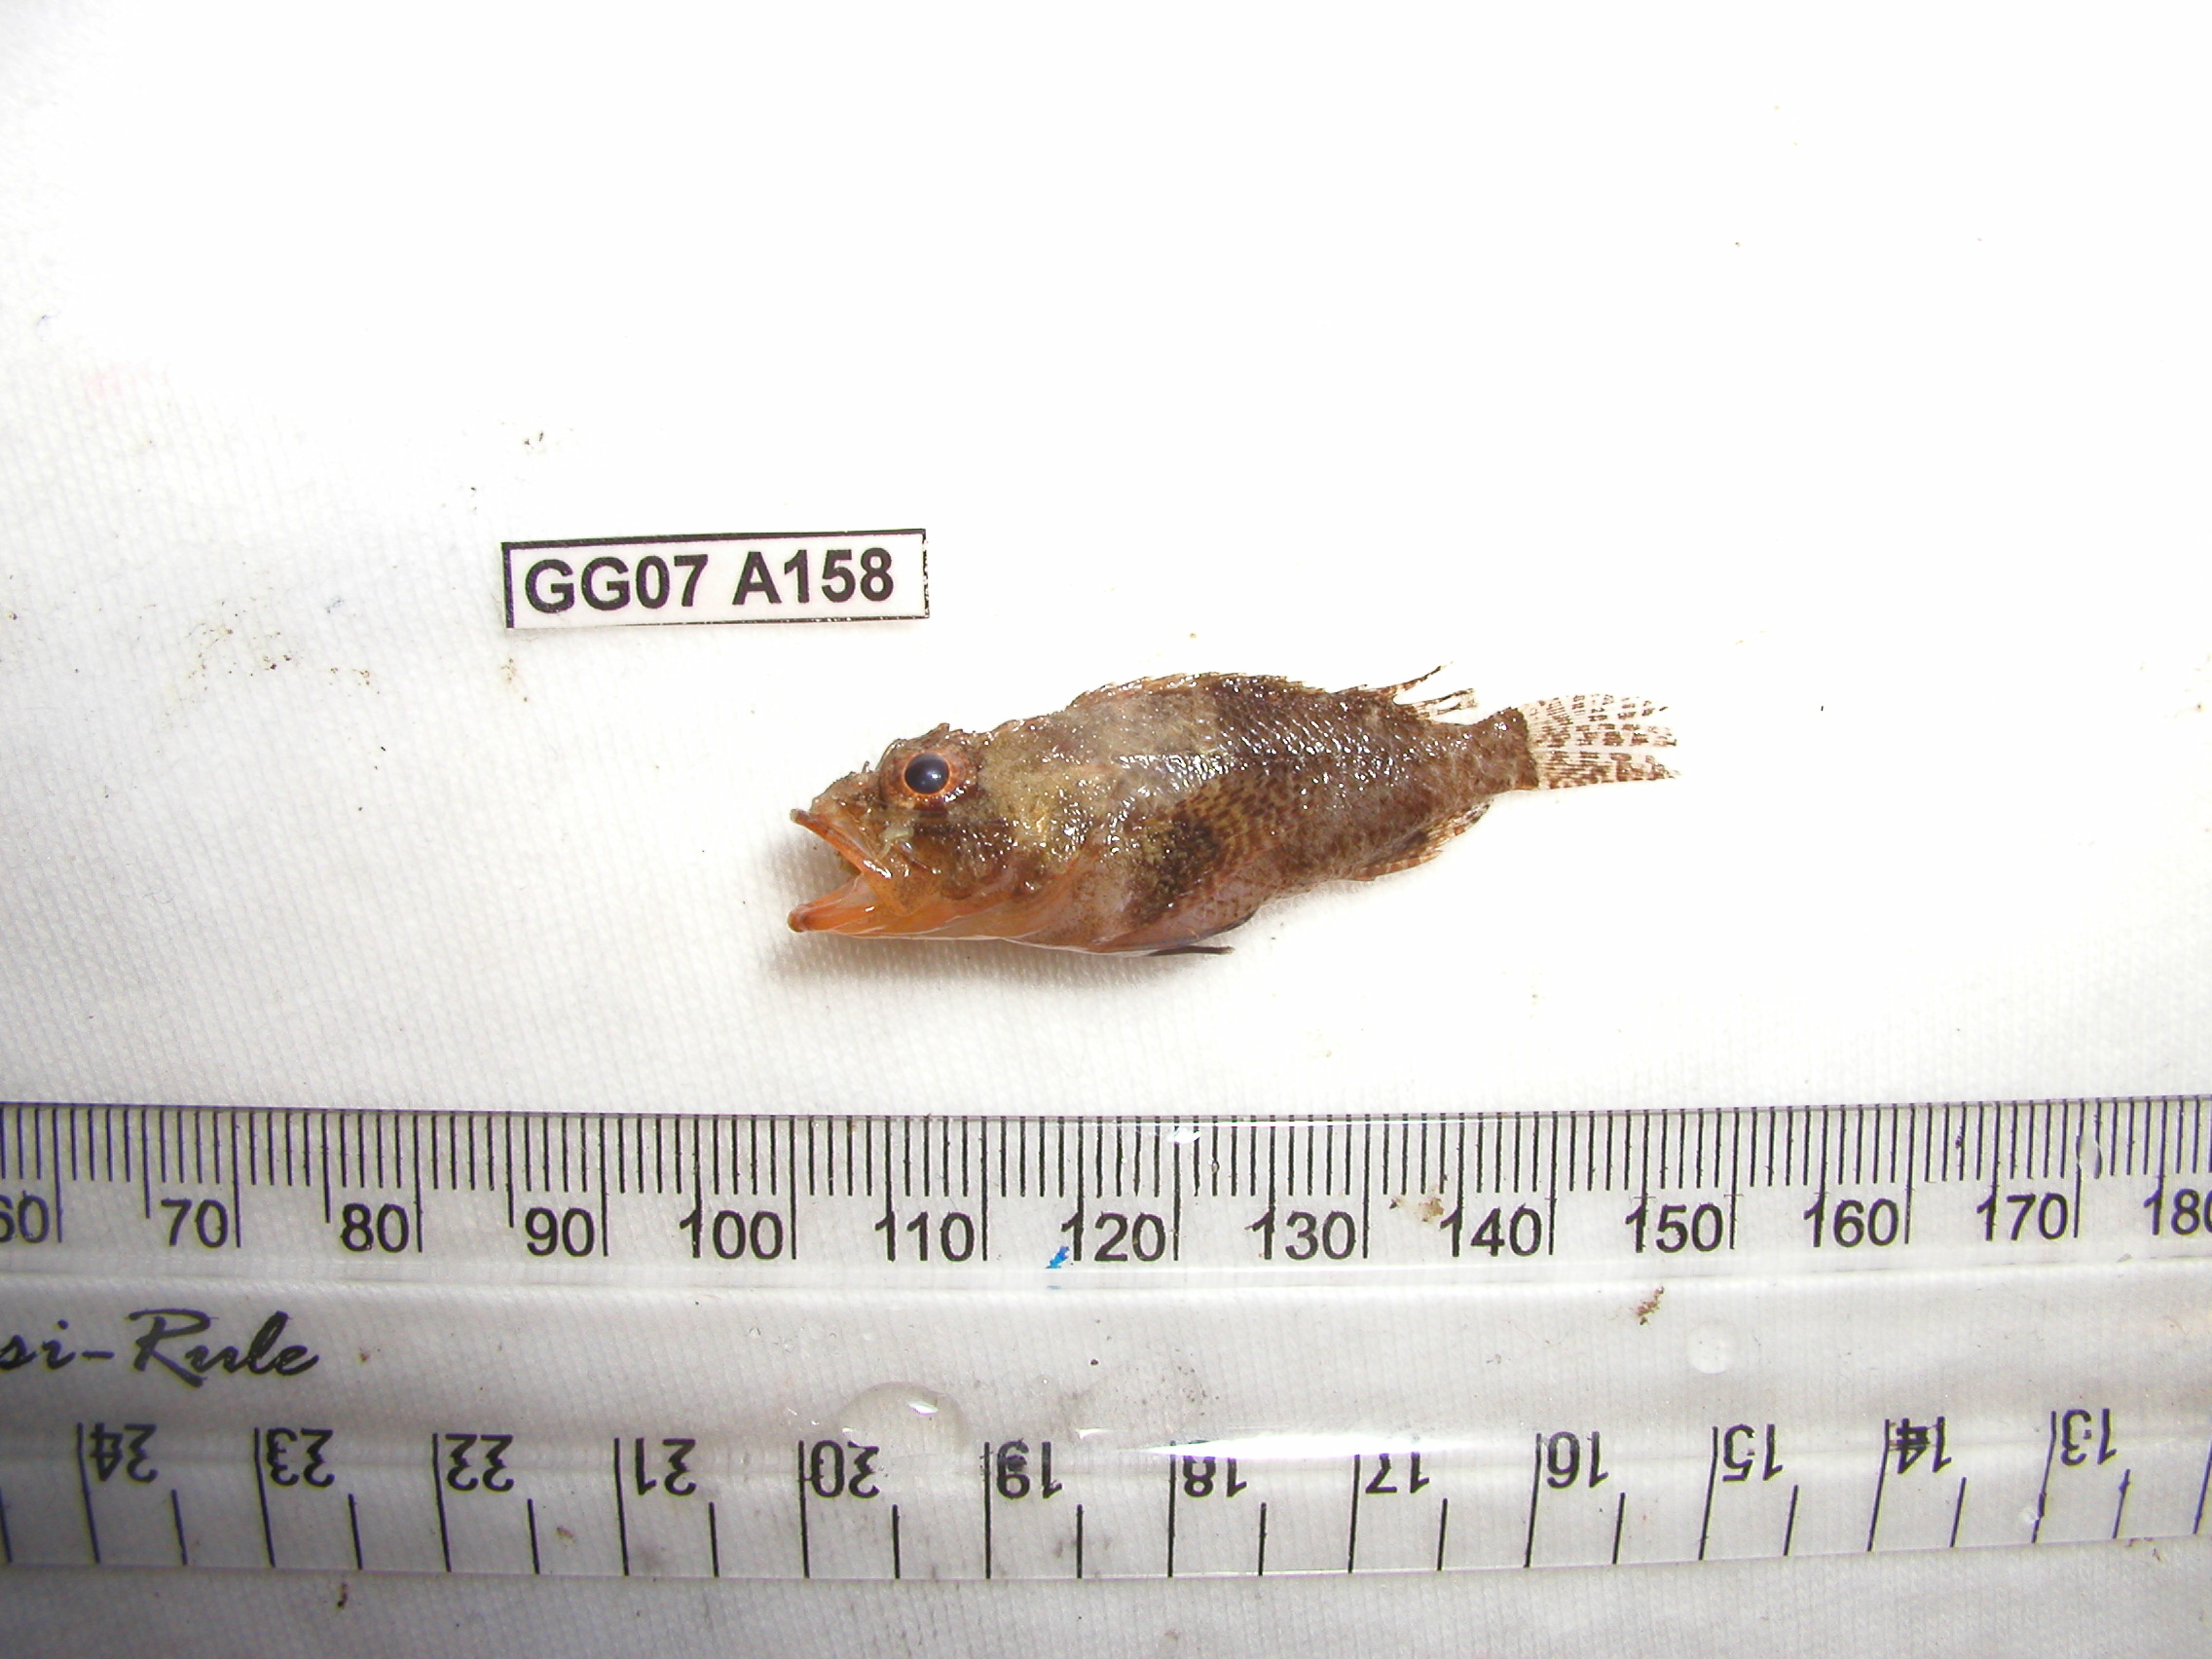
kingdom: Animalia
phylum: Chordata
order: Scorpaeniformes
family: Scorpaenidae
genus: Scorpaenodes
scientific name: Scorpaenodes guamensis
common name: Guam scorpionfish
